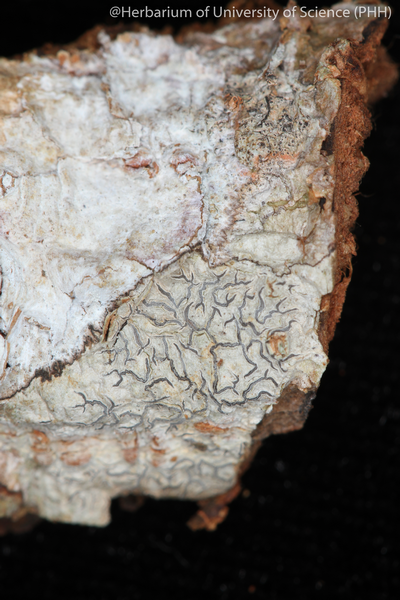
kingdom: Fungi
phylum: Ascomycota
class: Lecanoromycetes
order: Ostropales
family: Graphidaceae
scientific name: Graphidaceae
